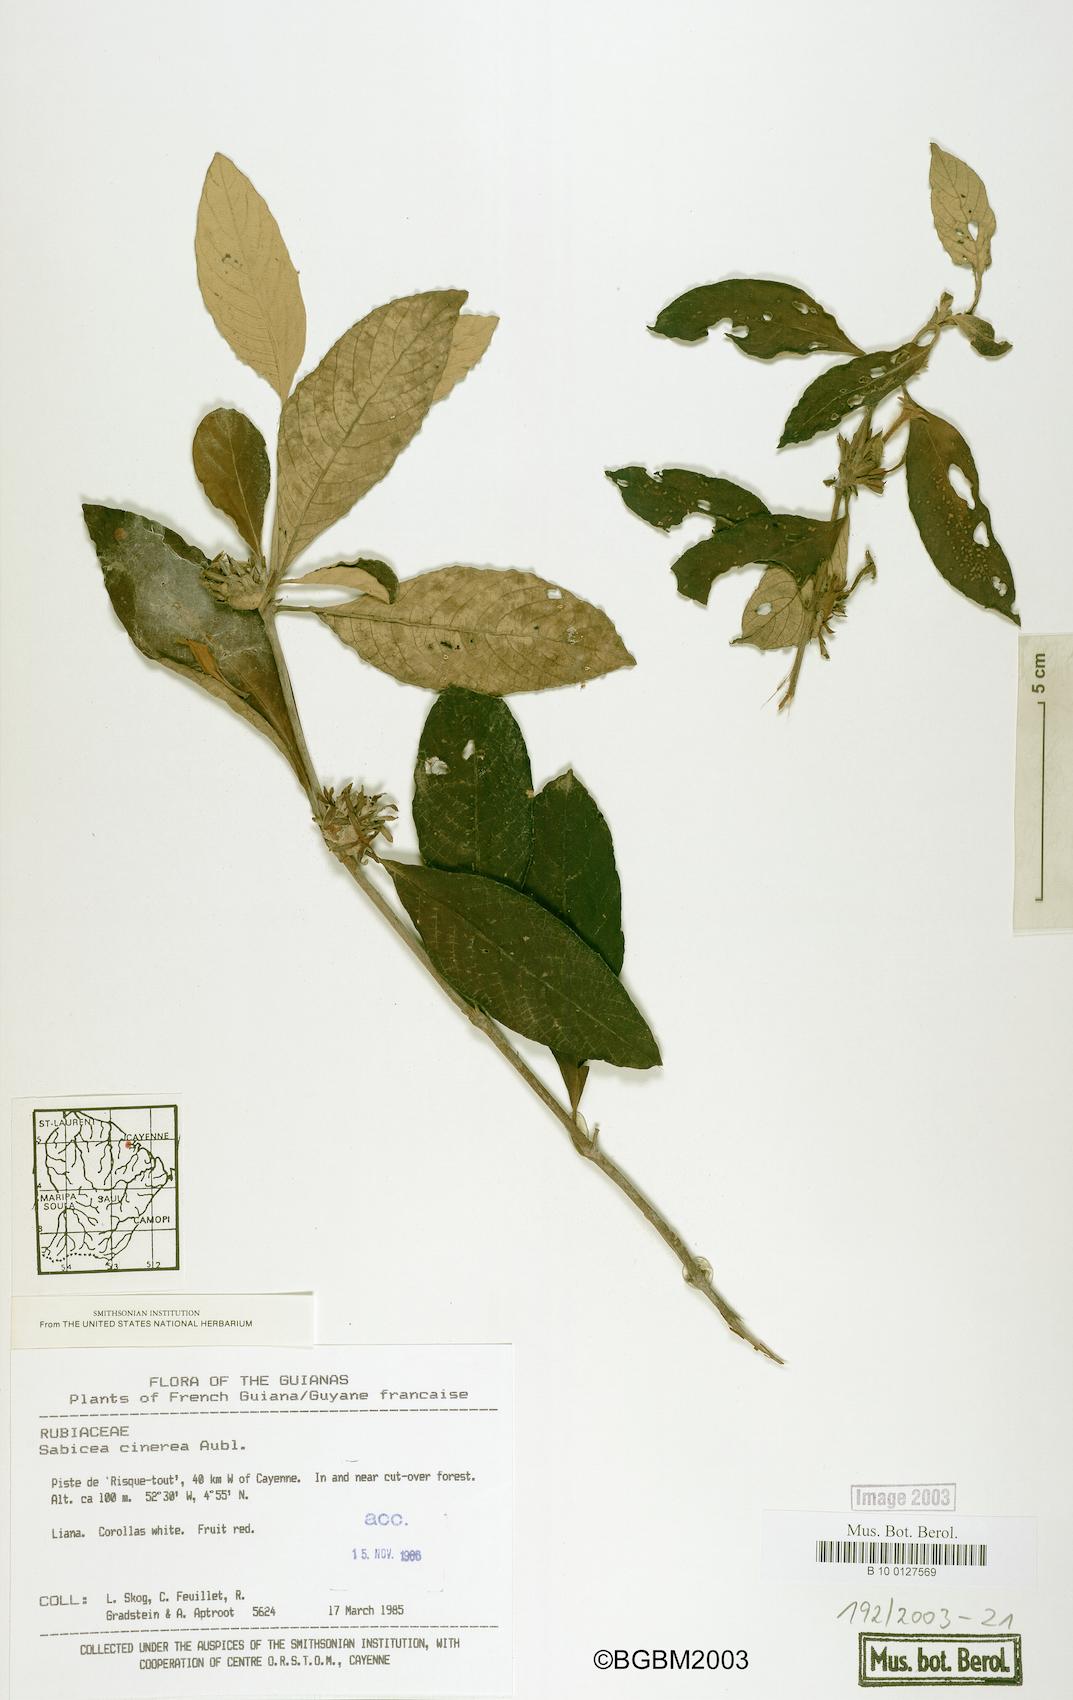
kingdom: Plantae
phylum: Tracheophyta
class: Magnoliopsida
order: Gentianales
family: Rubiaceae
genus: Sabicea
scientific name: Sabicea cinerea
